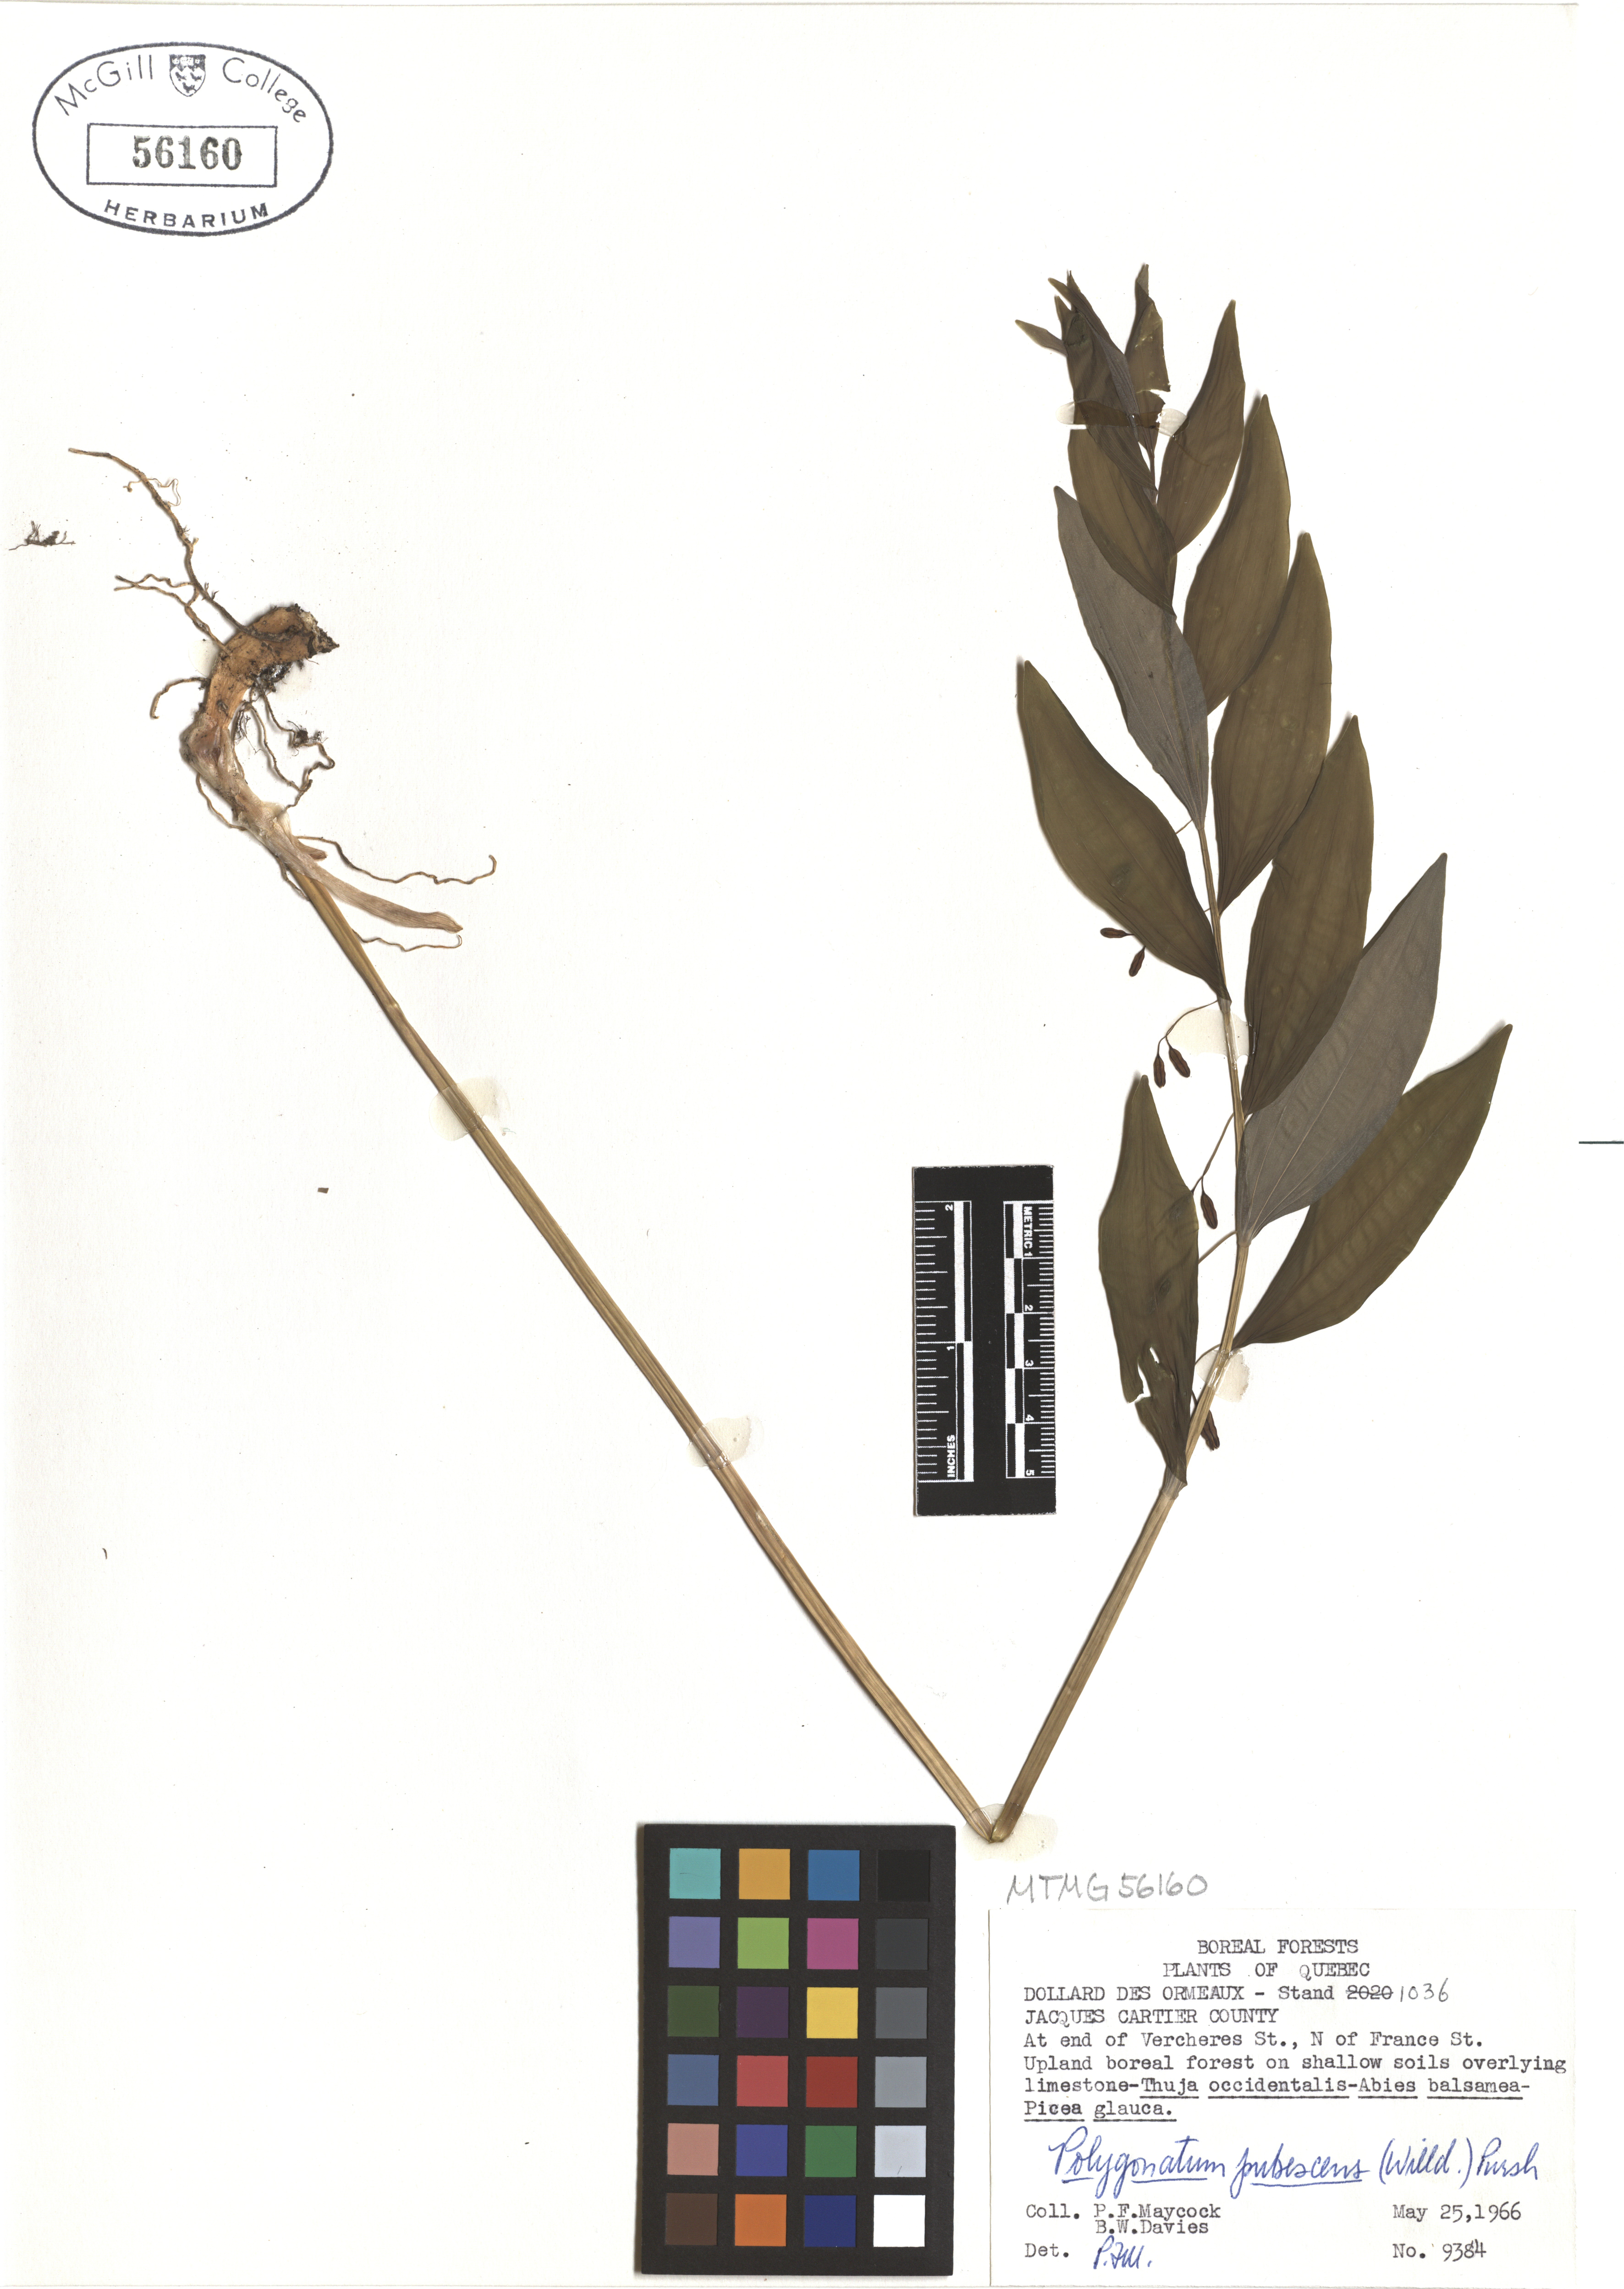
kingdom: Plantae
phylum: Tracheophyta
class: Liliopsida
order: Asparagales
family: Asparagaceae
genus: Polygonatum
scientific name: Polygonatum pubescens
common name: Downy solomon's seal
